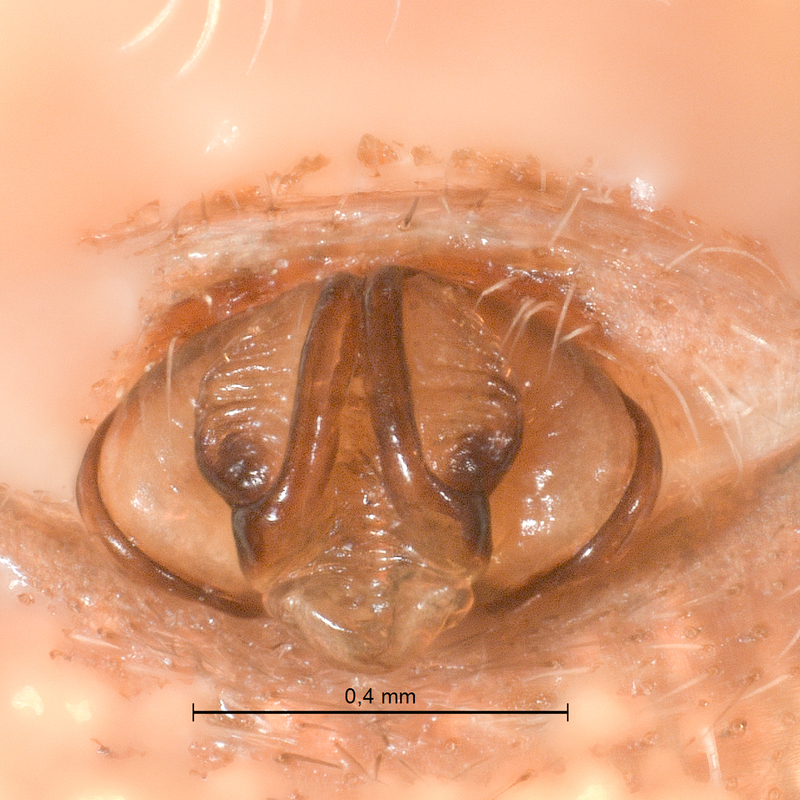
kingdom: Animalia
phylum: Arthropoda
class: Arachnida
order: Araneae
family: Araneidae
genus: Gibbaranea
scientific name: Gibbaranea bituberculata
